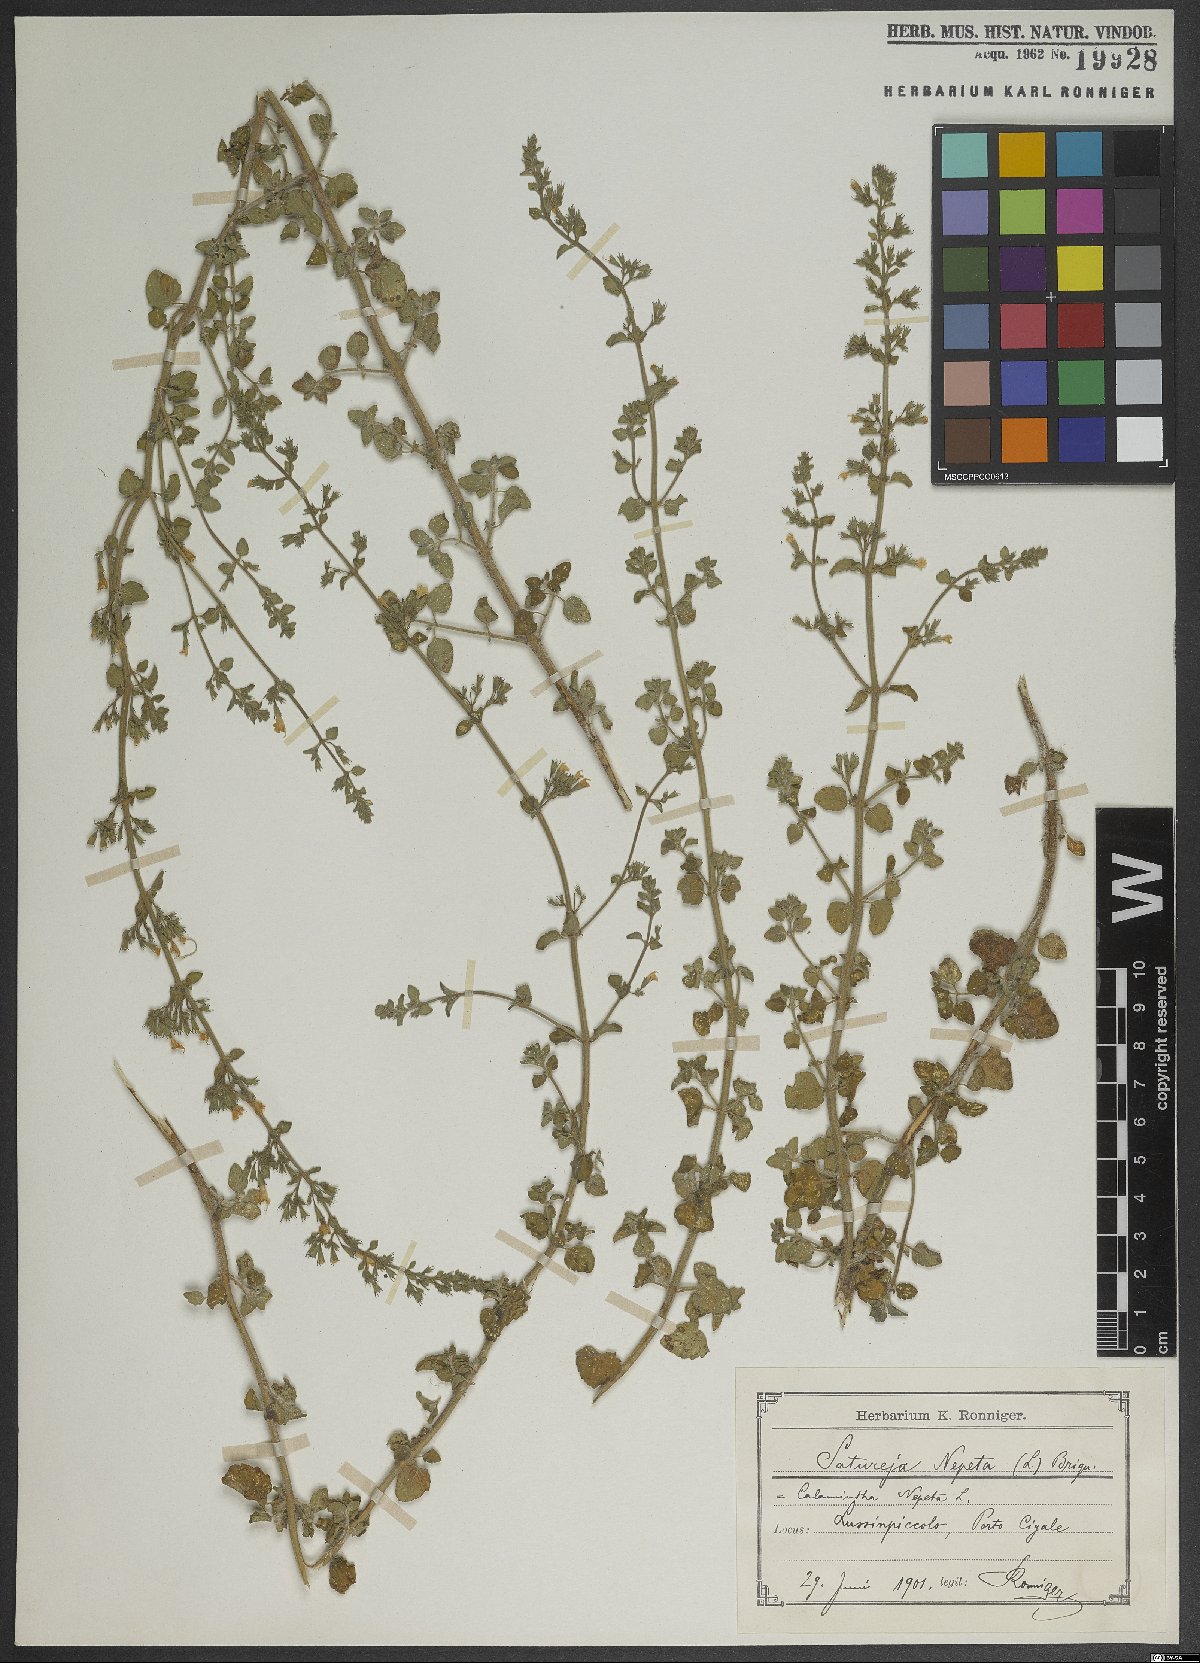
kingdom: Plantae
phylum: Tracheophyta
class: Magnoliopsida
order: Lamiales
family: Lamiaceae
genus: Clinopodium
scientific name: Clinopodium nepeta
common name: Lesser calamint
